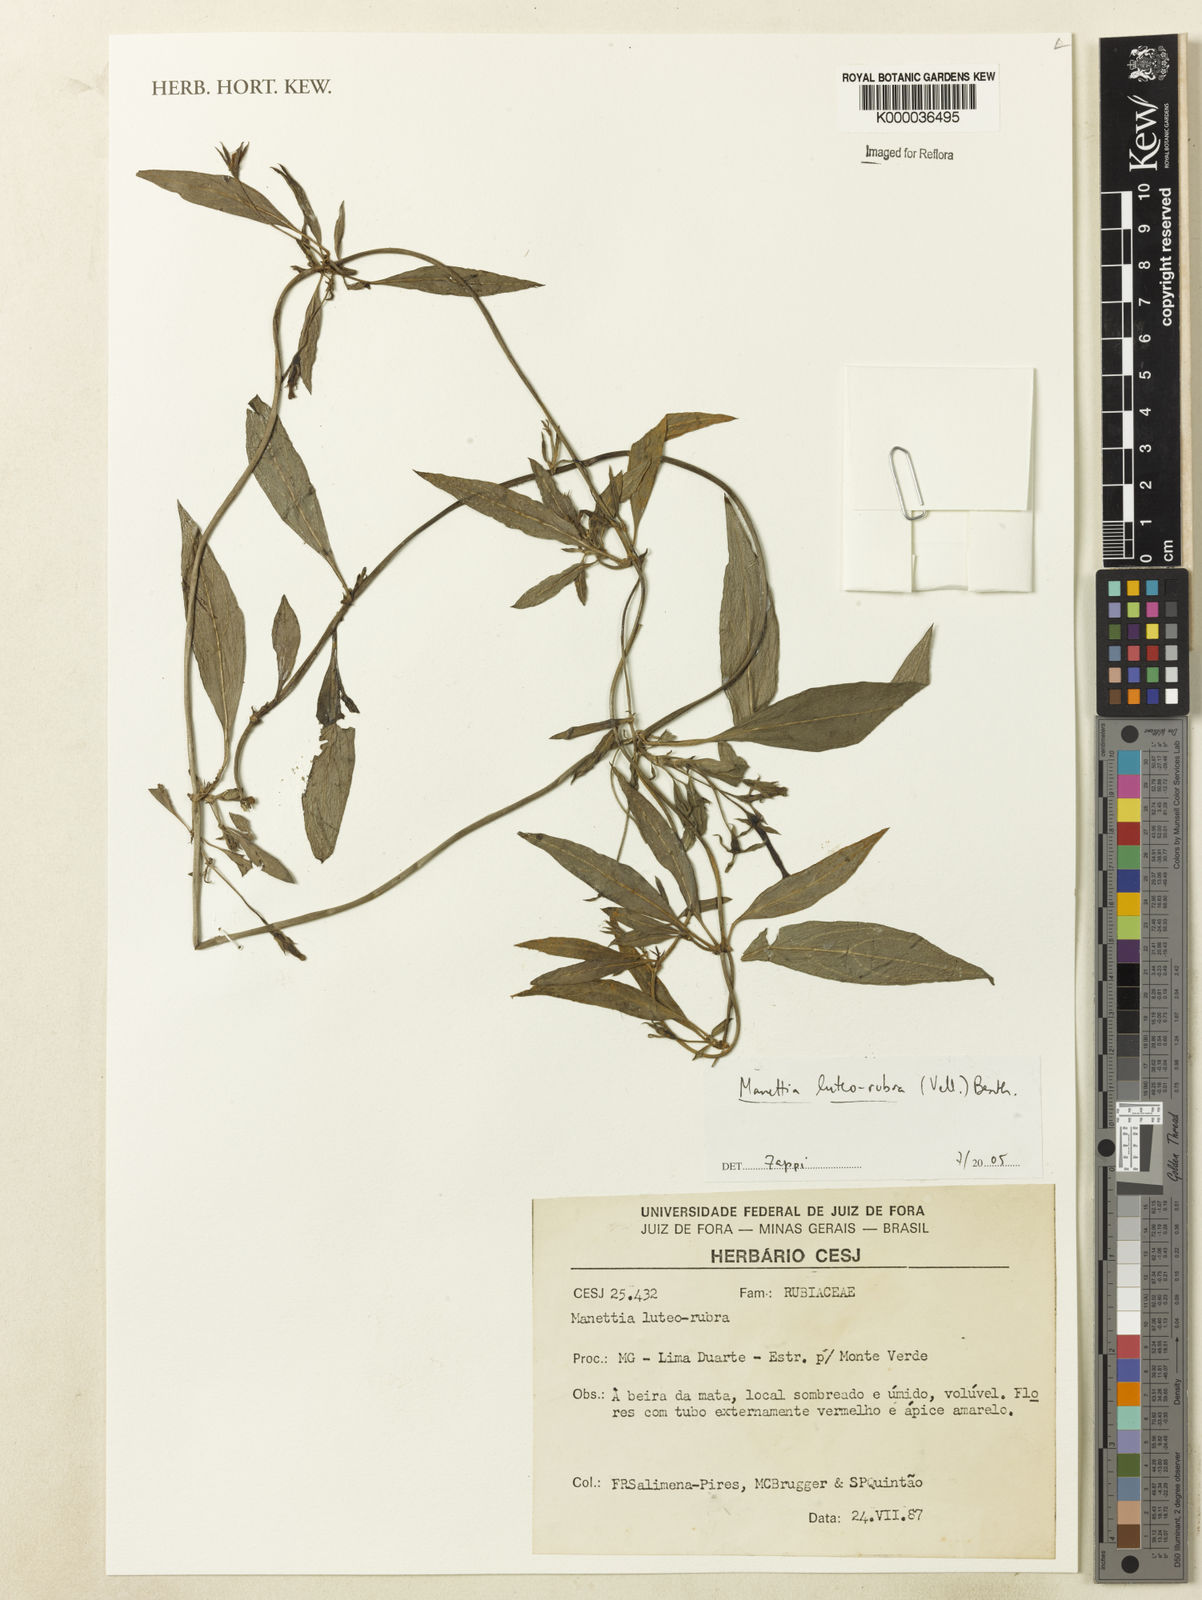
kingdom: Plantae
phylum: Tracheophyta
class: Magnoliopsida
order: Malpighiales
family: Clusiaceae
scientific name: Clusiaceae
